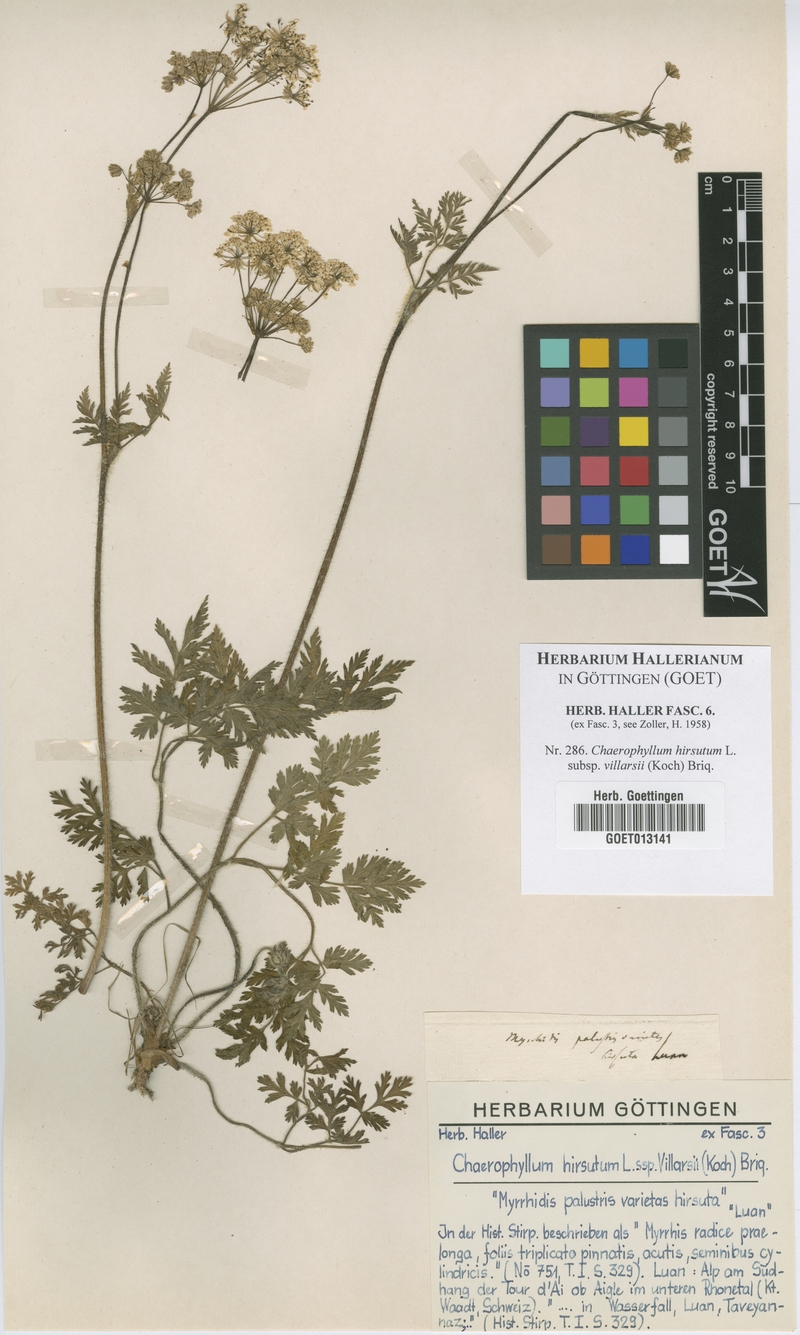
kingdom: Plantae
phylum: Tracheophyta
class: Magnoliopsida
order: Apiales
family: Apiaceae
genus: Chaerophyllum
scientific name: Chaerophyllum villarsii
